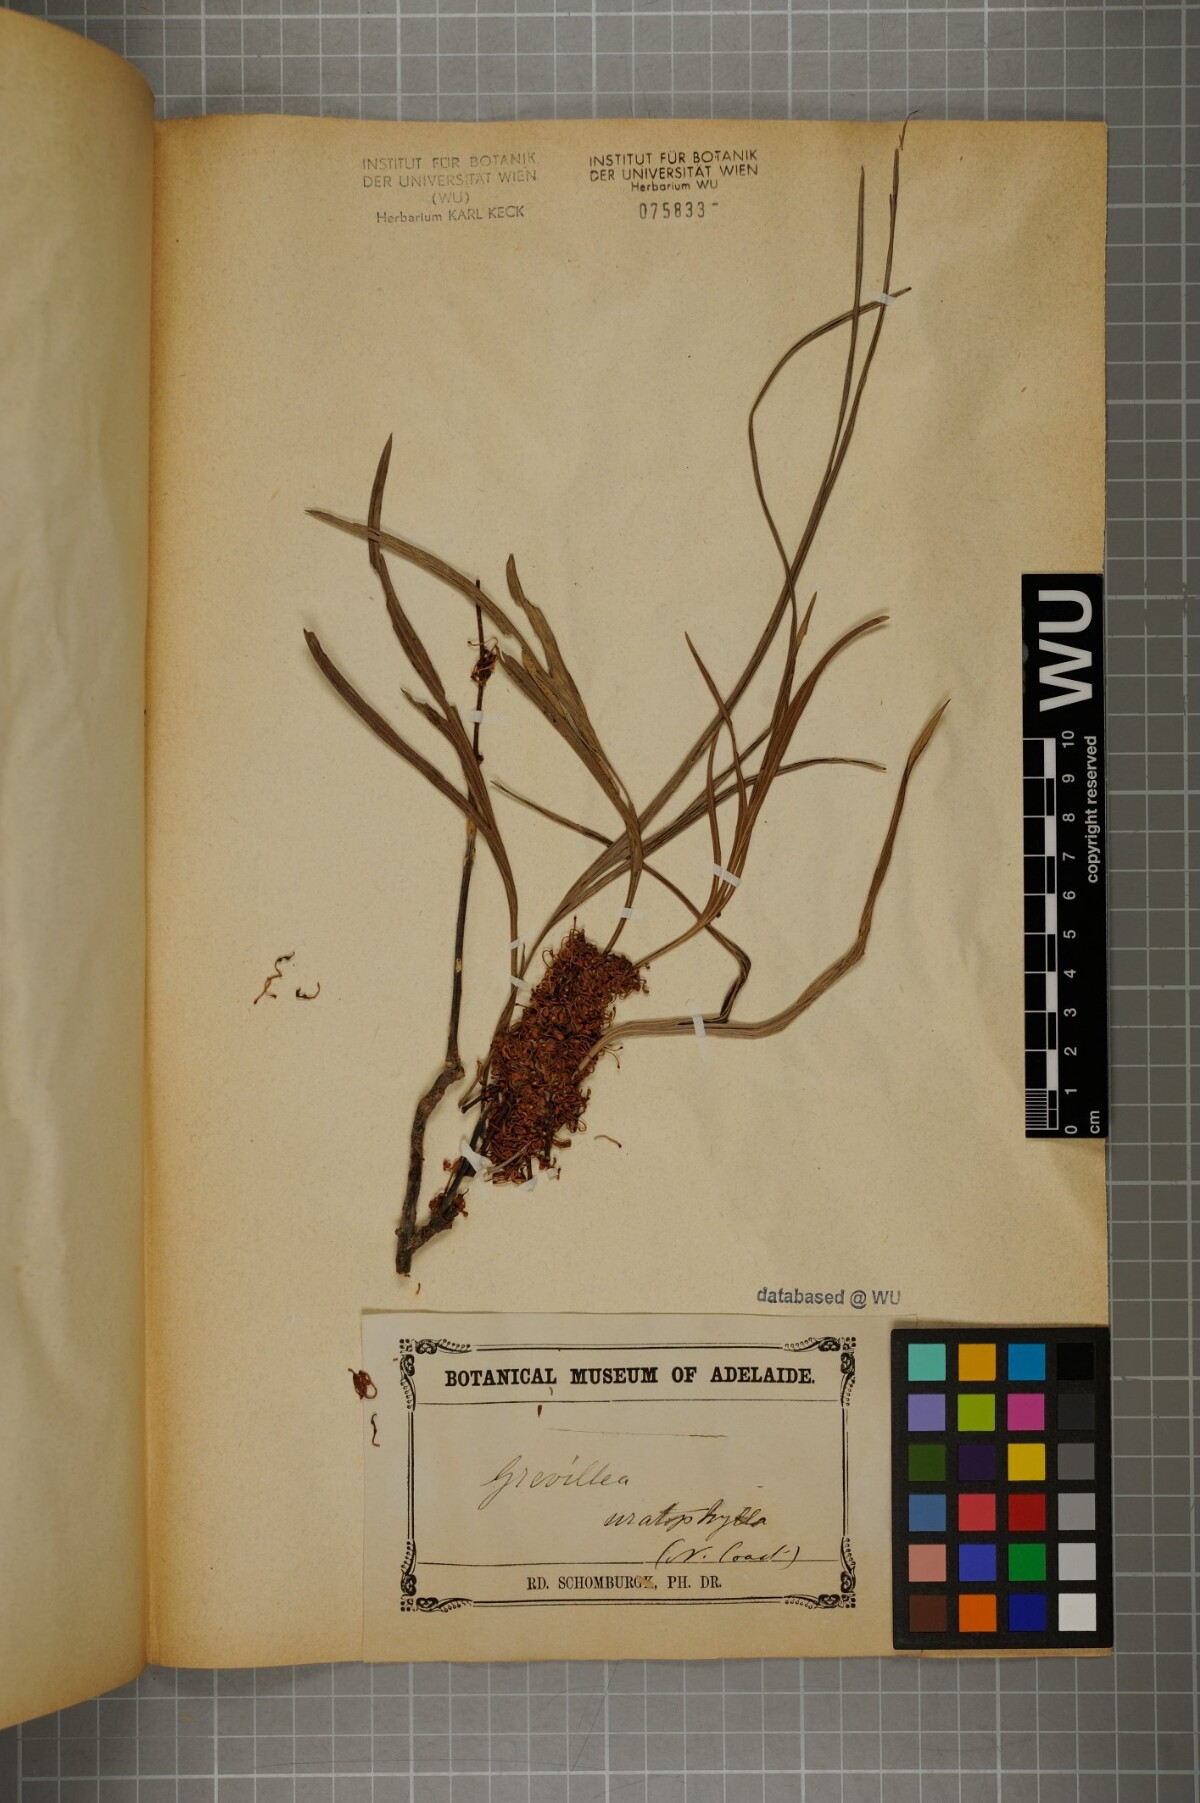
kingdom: Plantae
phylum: Tracheophyta
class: Magnoliopsida
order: Proteales
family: Proteaceae
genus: Grevillea
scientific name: Grevillea
